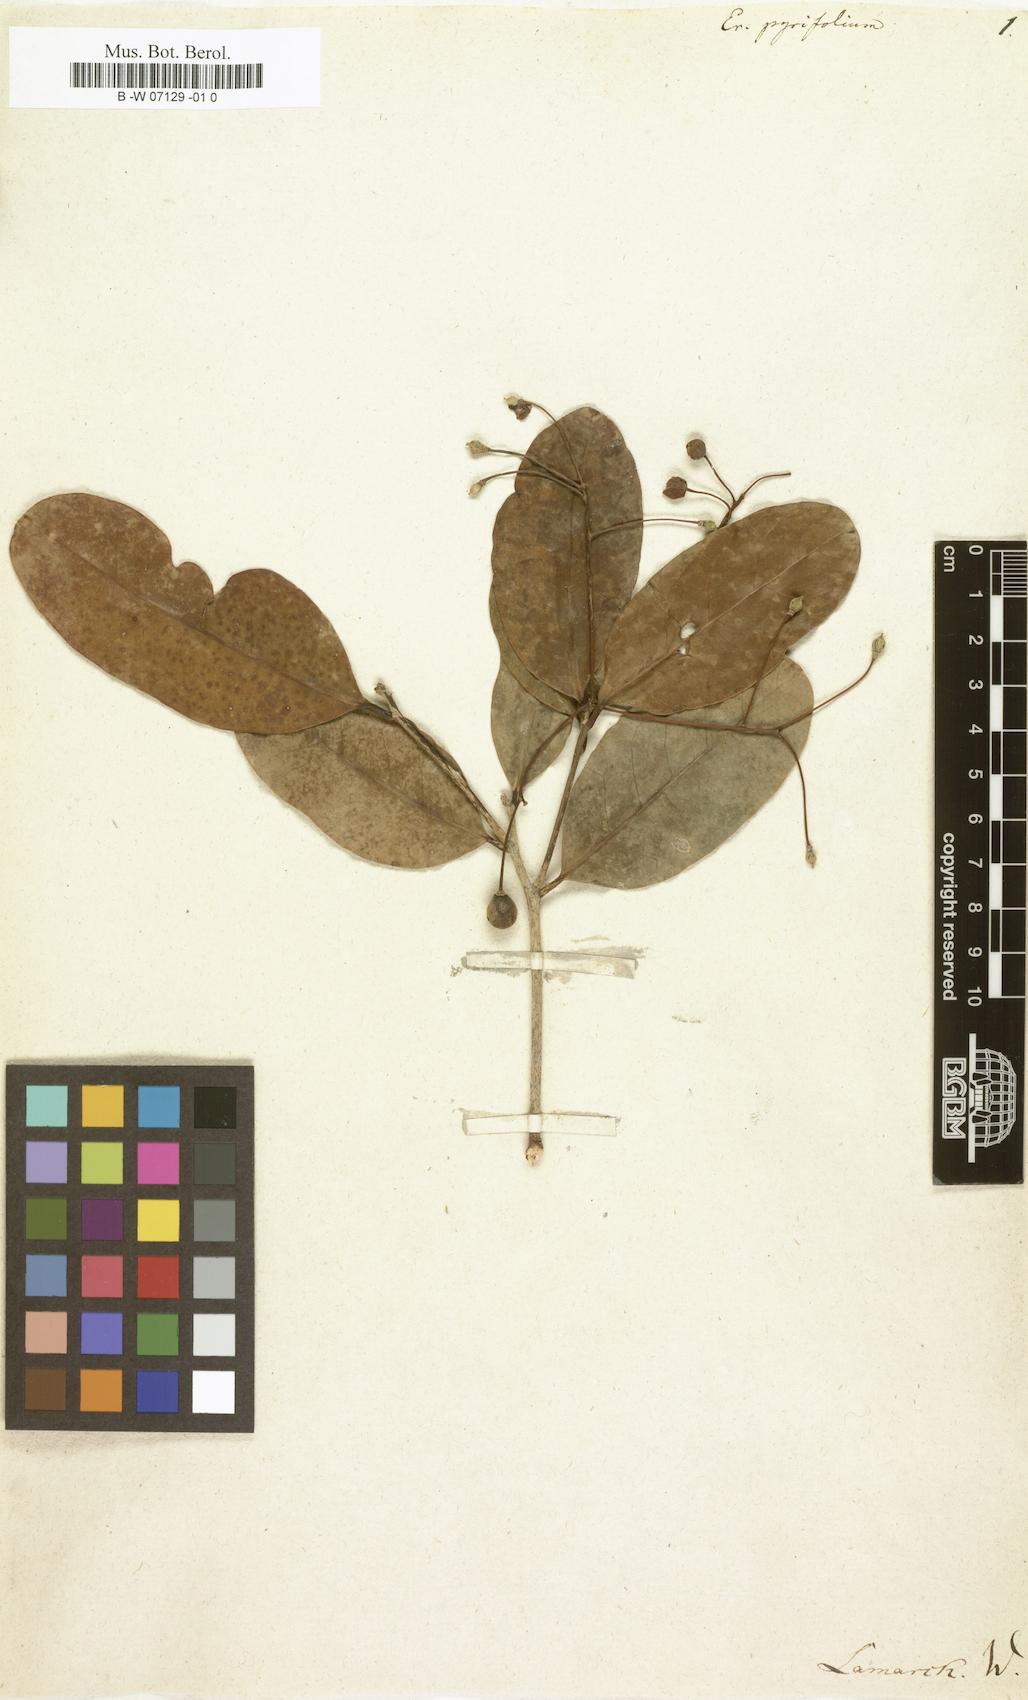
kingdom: Plantae
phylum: Tracheophyta
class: Magnoliopsida
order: Malpighiales
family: Achariaceae
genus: Erythrospermum
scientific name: Erythrospermum monticola
